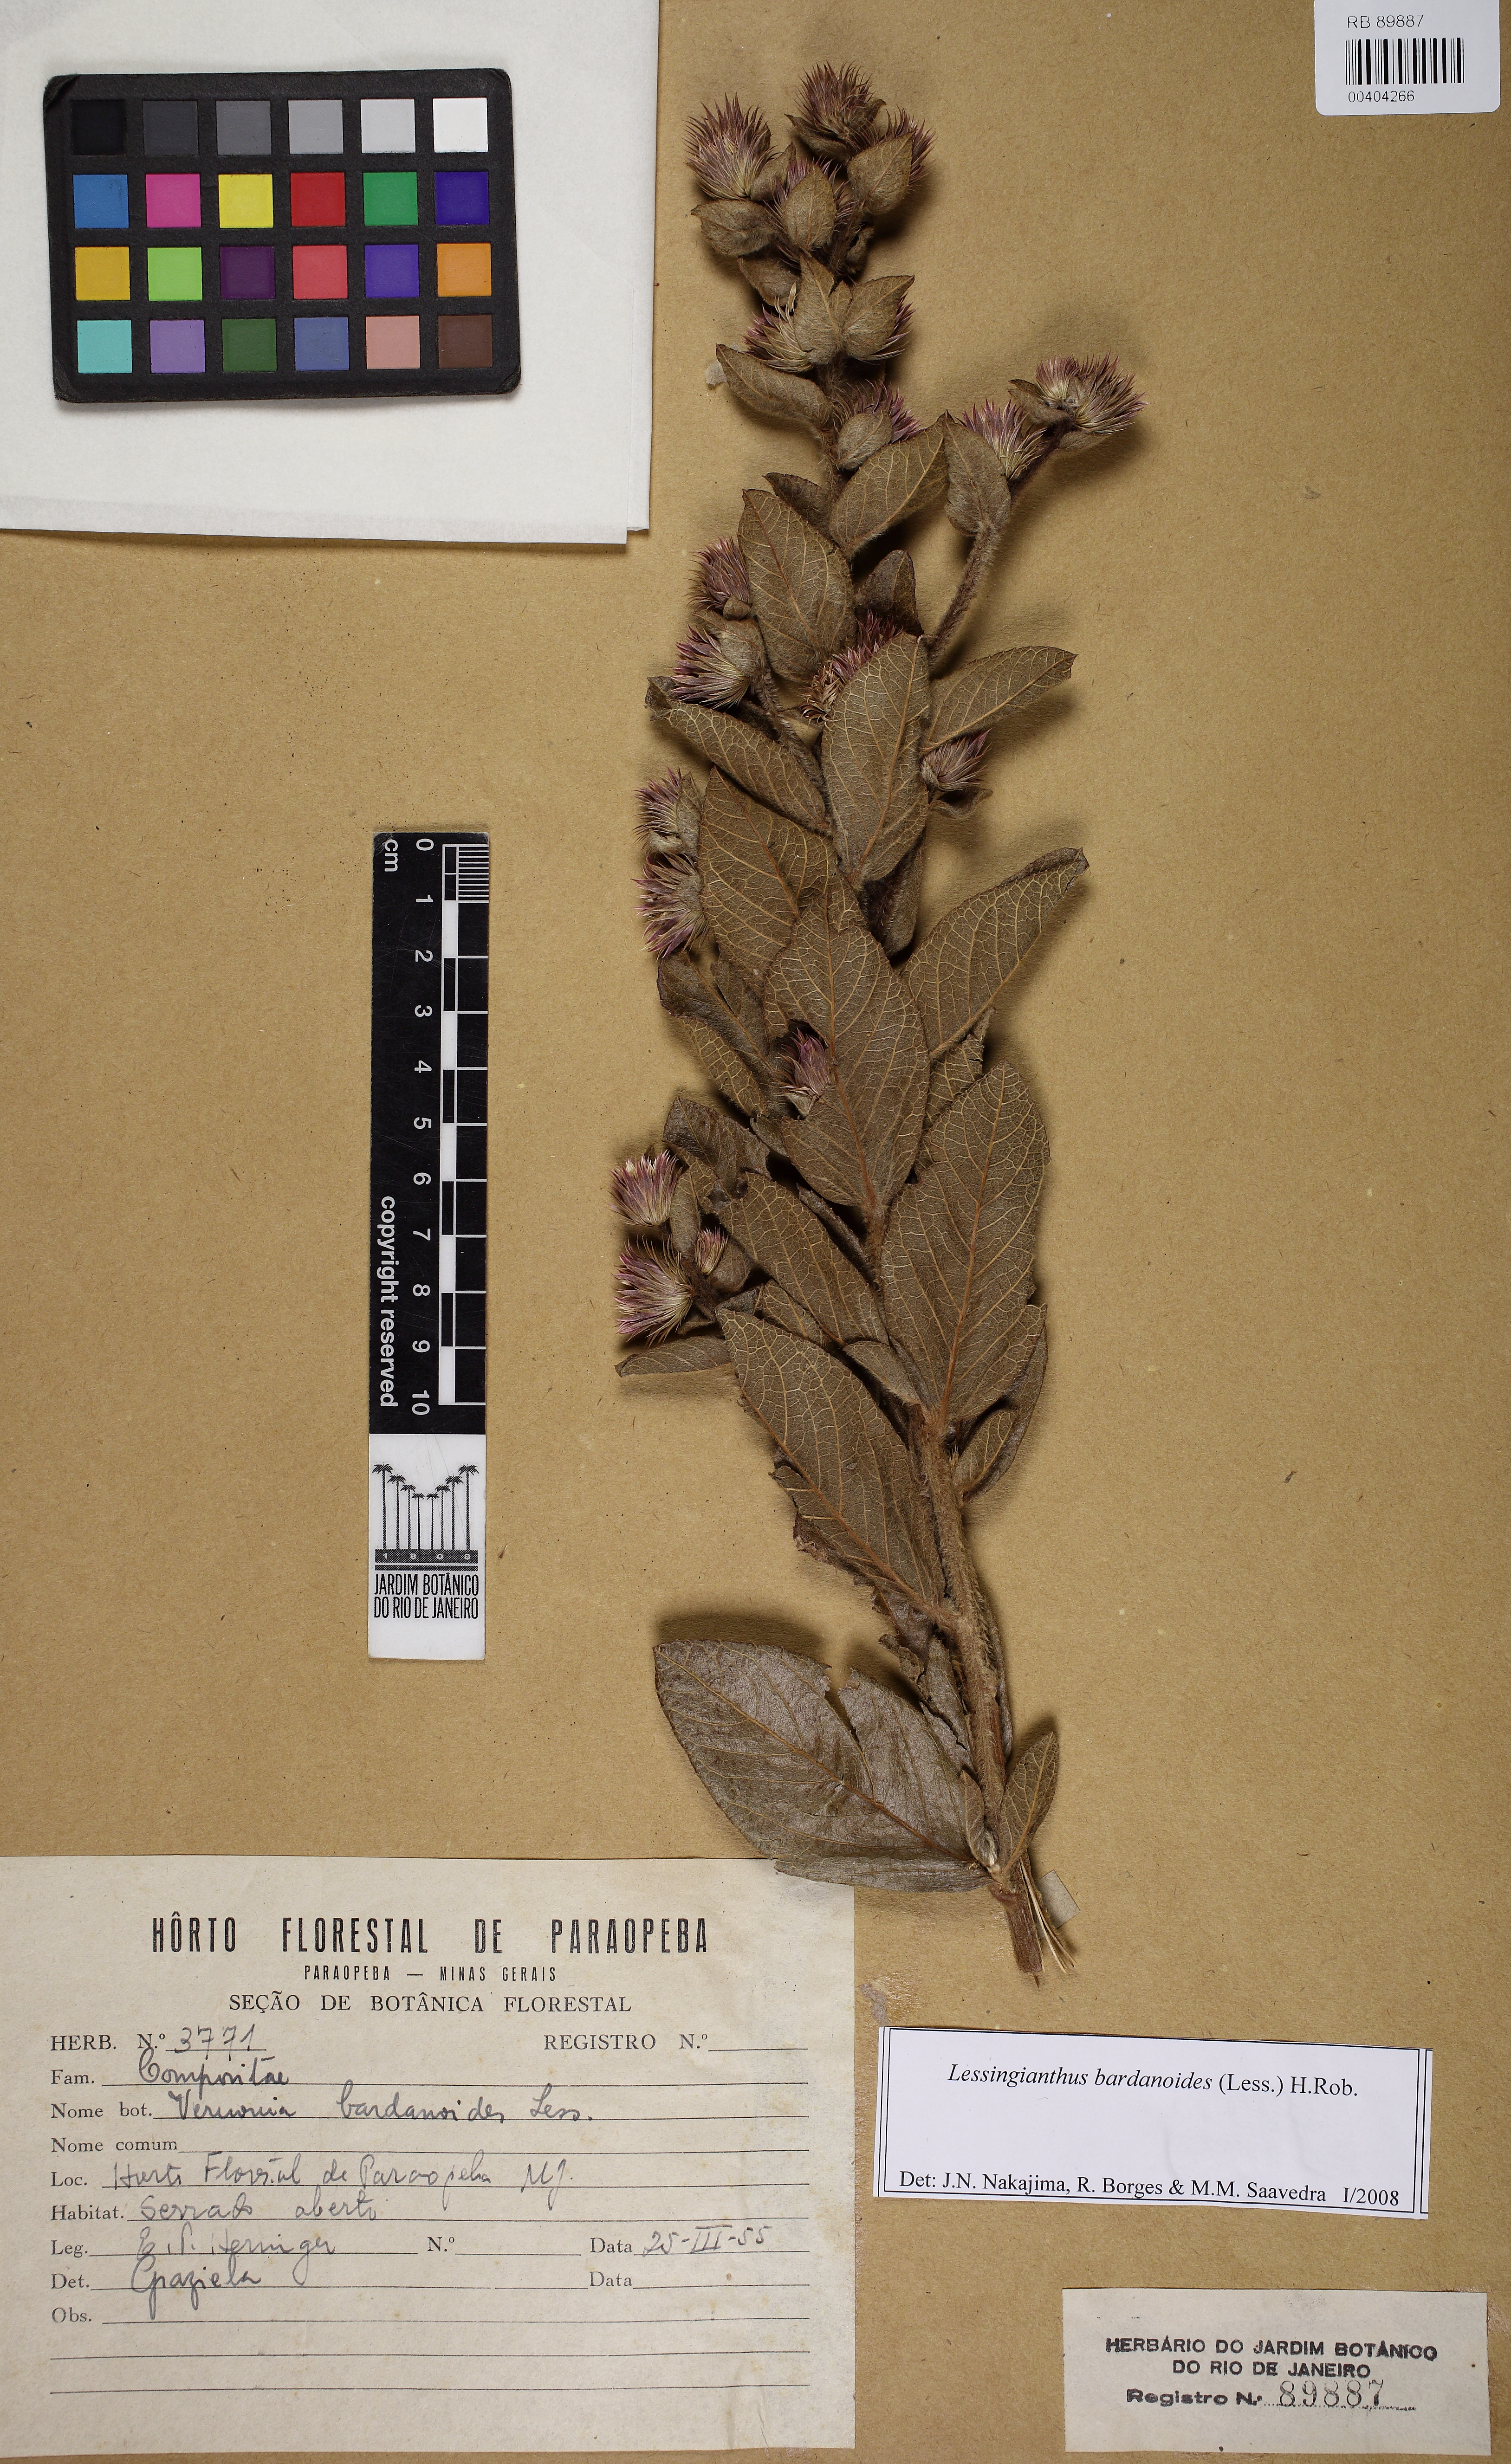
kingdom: Plantae
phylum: Tracheophyta
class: Magnoliopsida
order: Asterales
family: Asteraceae
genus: Lessingianthus
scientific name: Lessingianthus bardanioides
